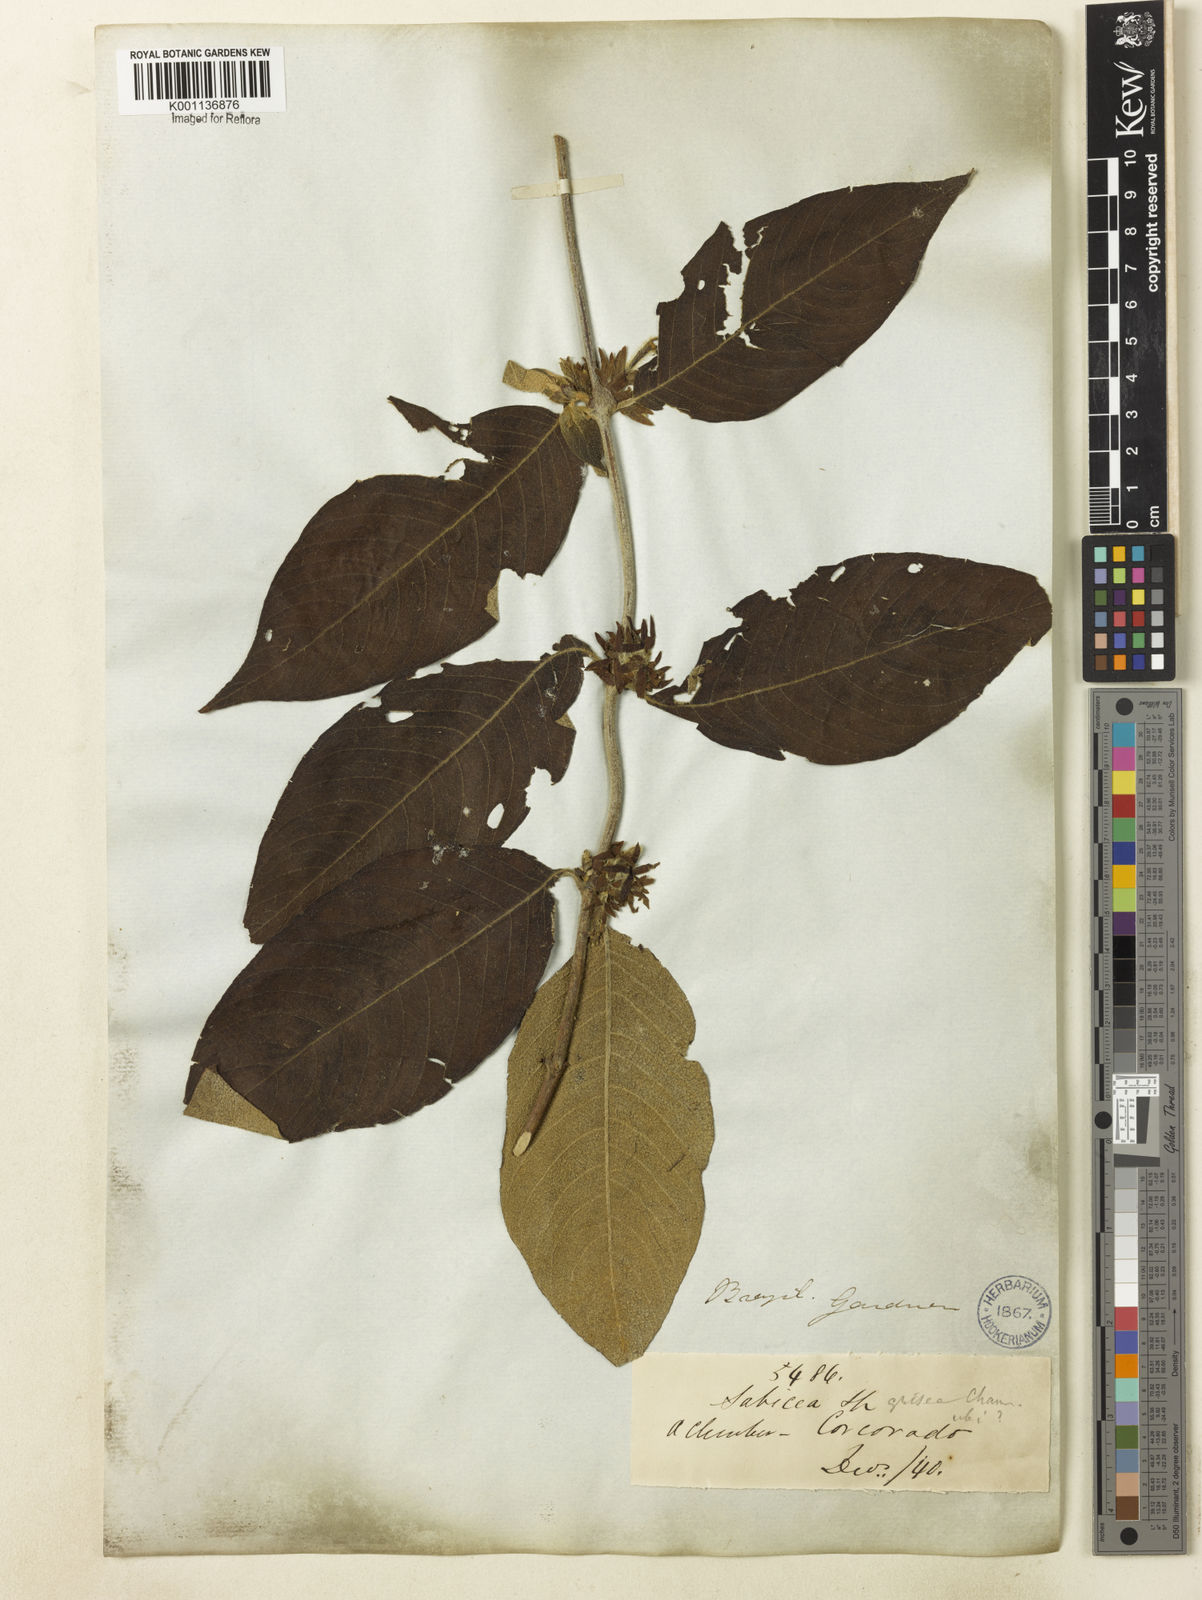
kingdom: Plantae
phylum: Tracheophyta
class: Magnoliopsida
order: Gentianales
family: Rubiaceae
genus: Sabicea
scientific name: Sabicea grisea
